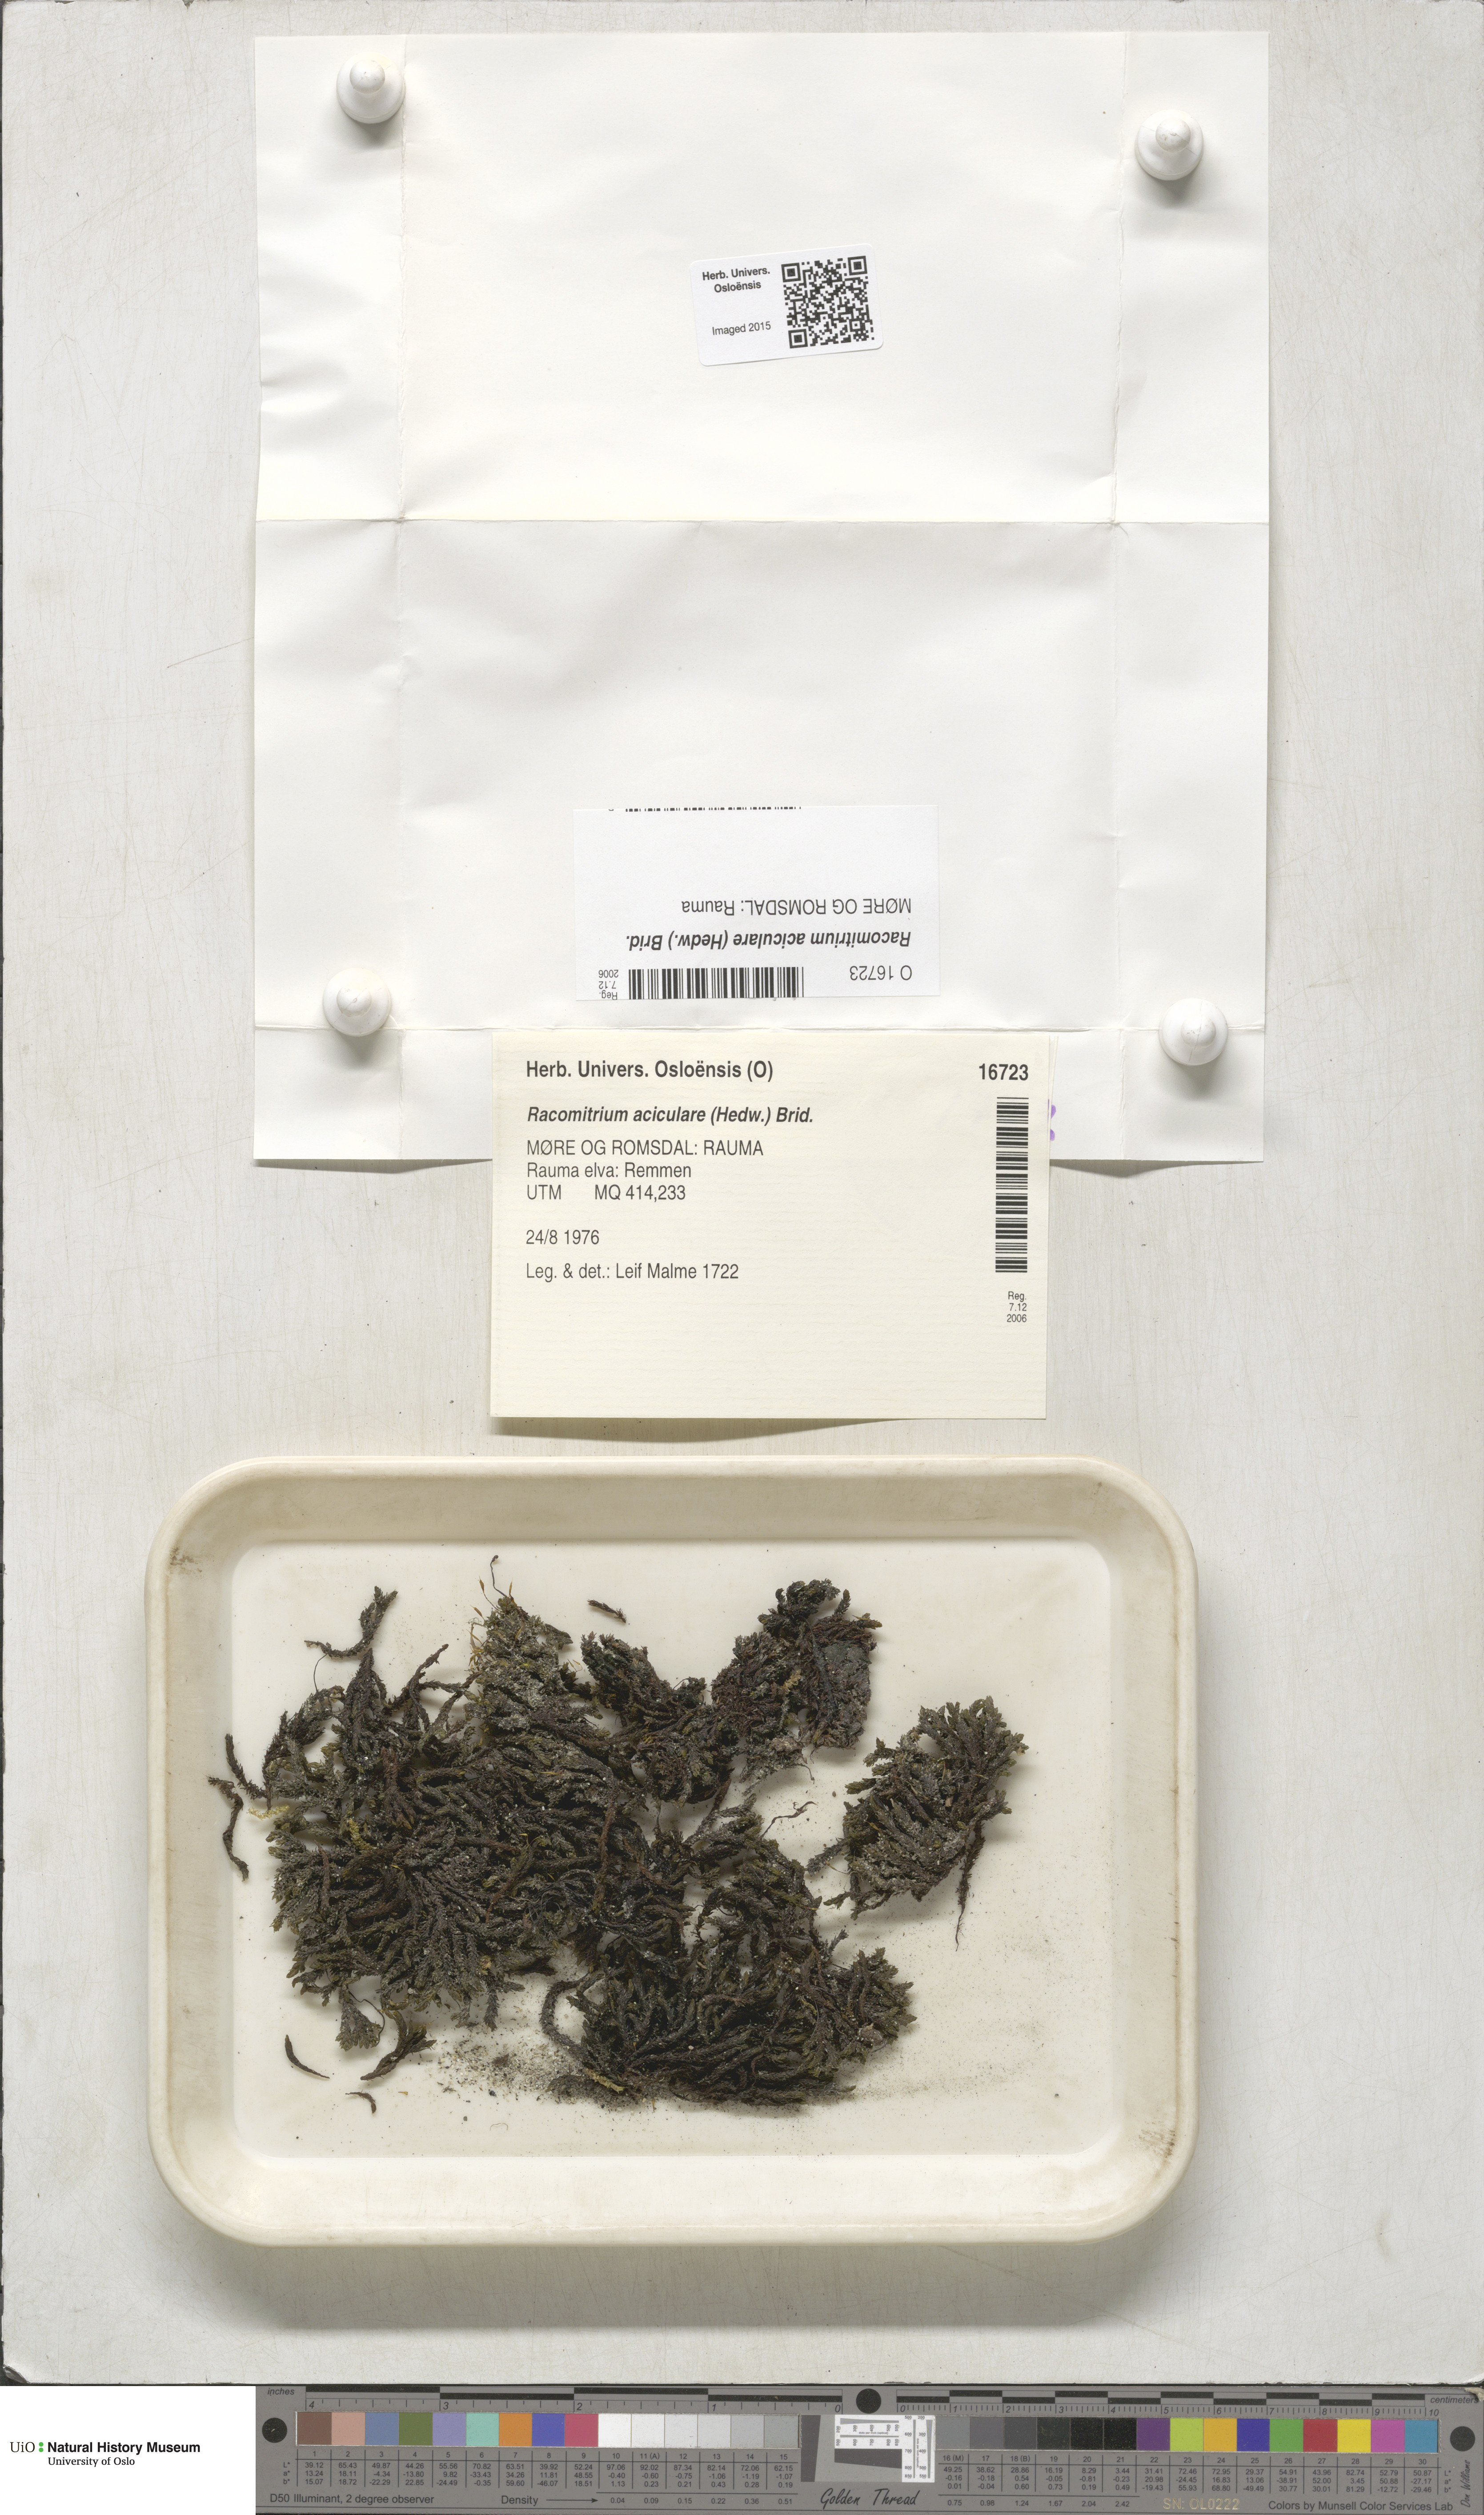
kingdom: Plantae
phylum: Bryophyta
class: Bryopsida
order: Grimmiales
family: Grimmiaceae
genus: Codriophorus
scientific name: Codriophorus acicularis
